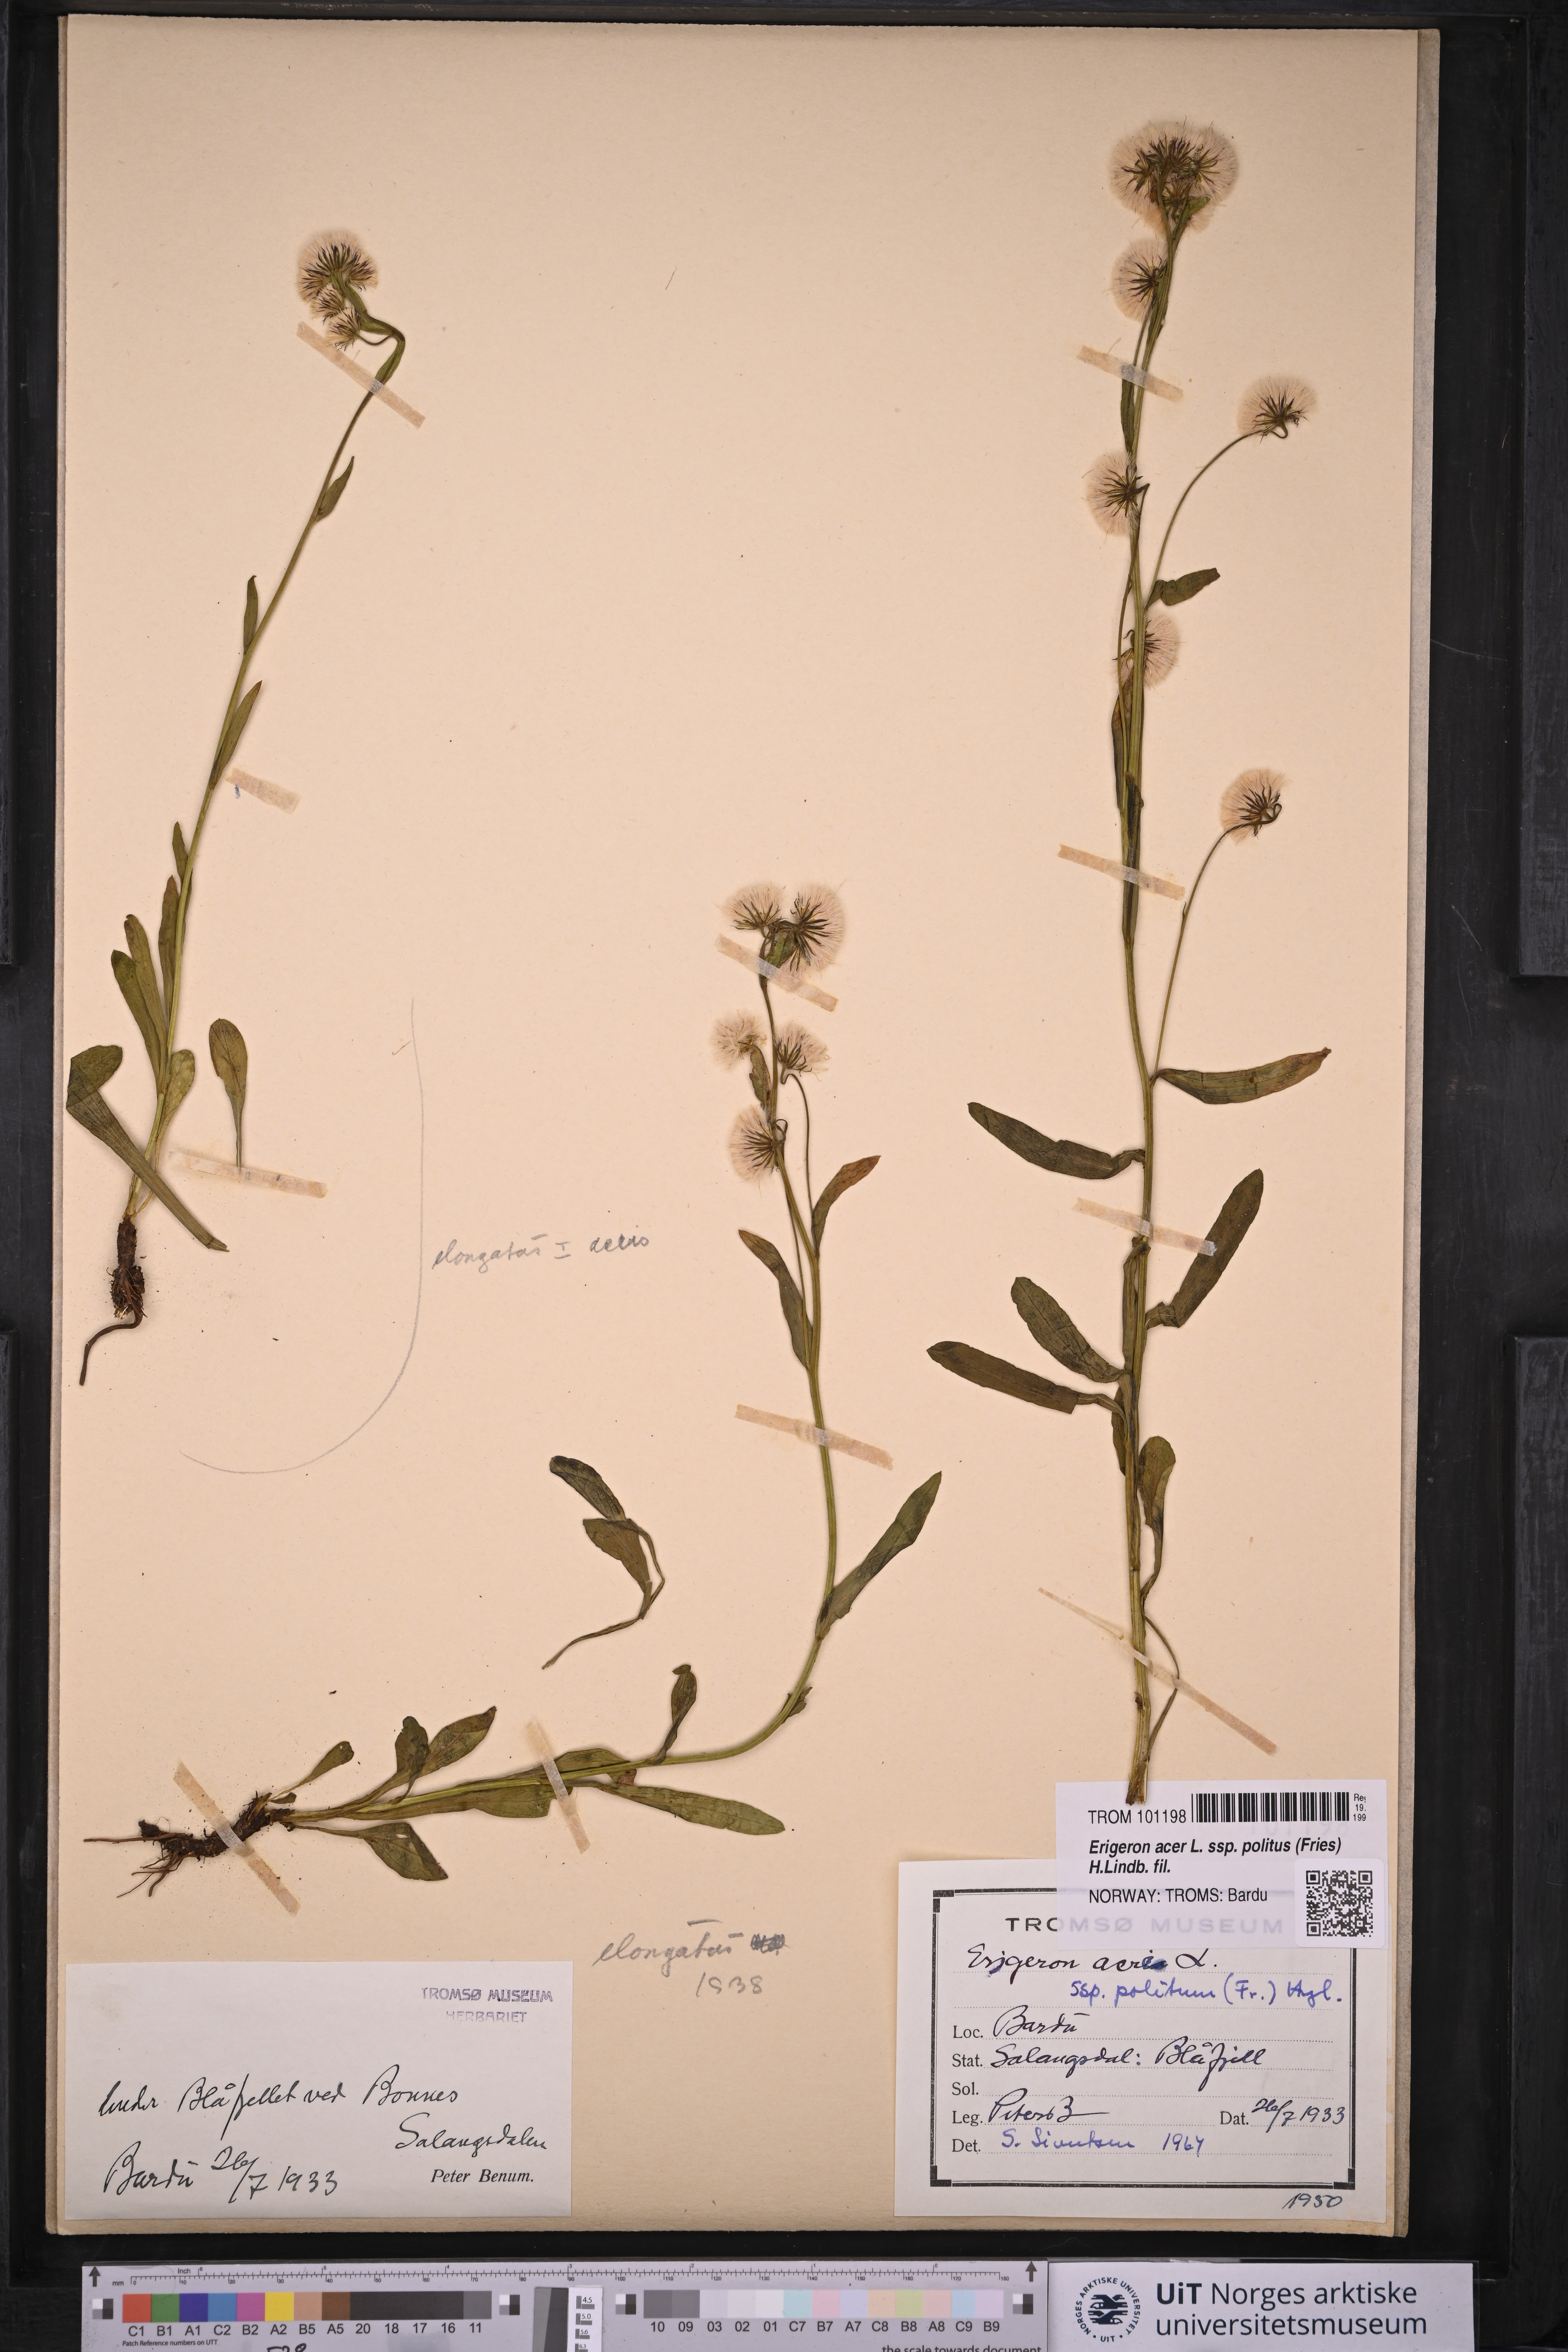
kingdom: Plantae
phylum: Tracheophyta
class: Magnoliopsida
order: Asterales
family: Asteraceae
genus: Erigeron
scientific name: Erigeron politus
